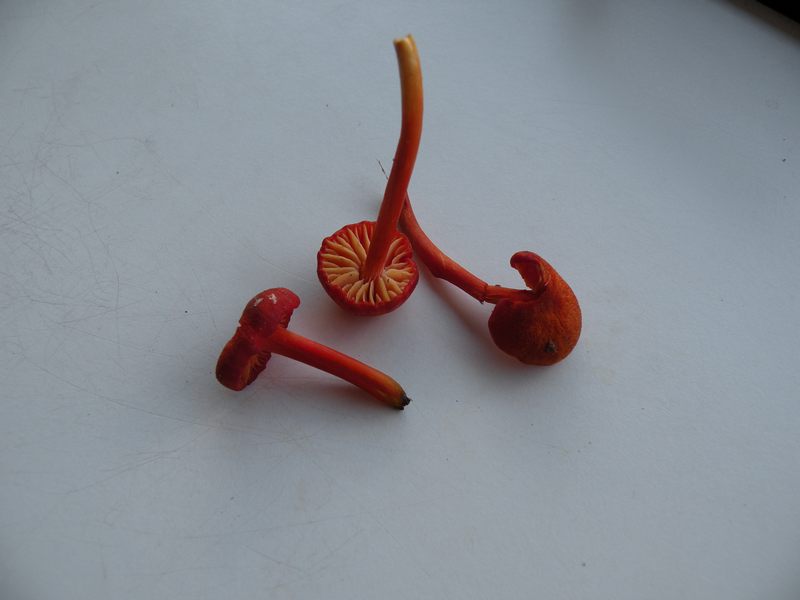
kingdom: Fungi
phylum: Basidiomycota
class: Agaricomycetes
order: Agaricales
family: Hygrophoraceae
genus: Hygrocybe
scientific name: Hygrocybe helobia
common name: hvidløgs-vokshat
